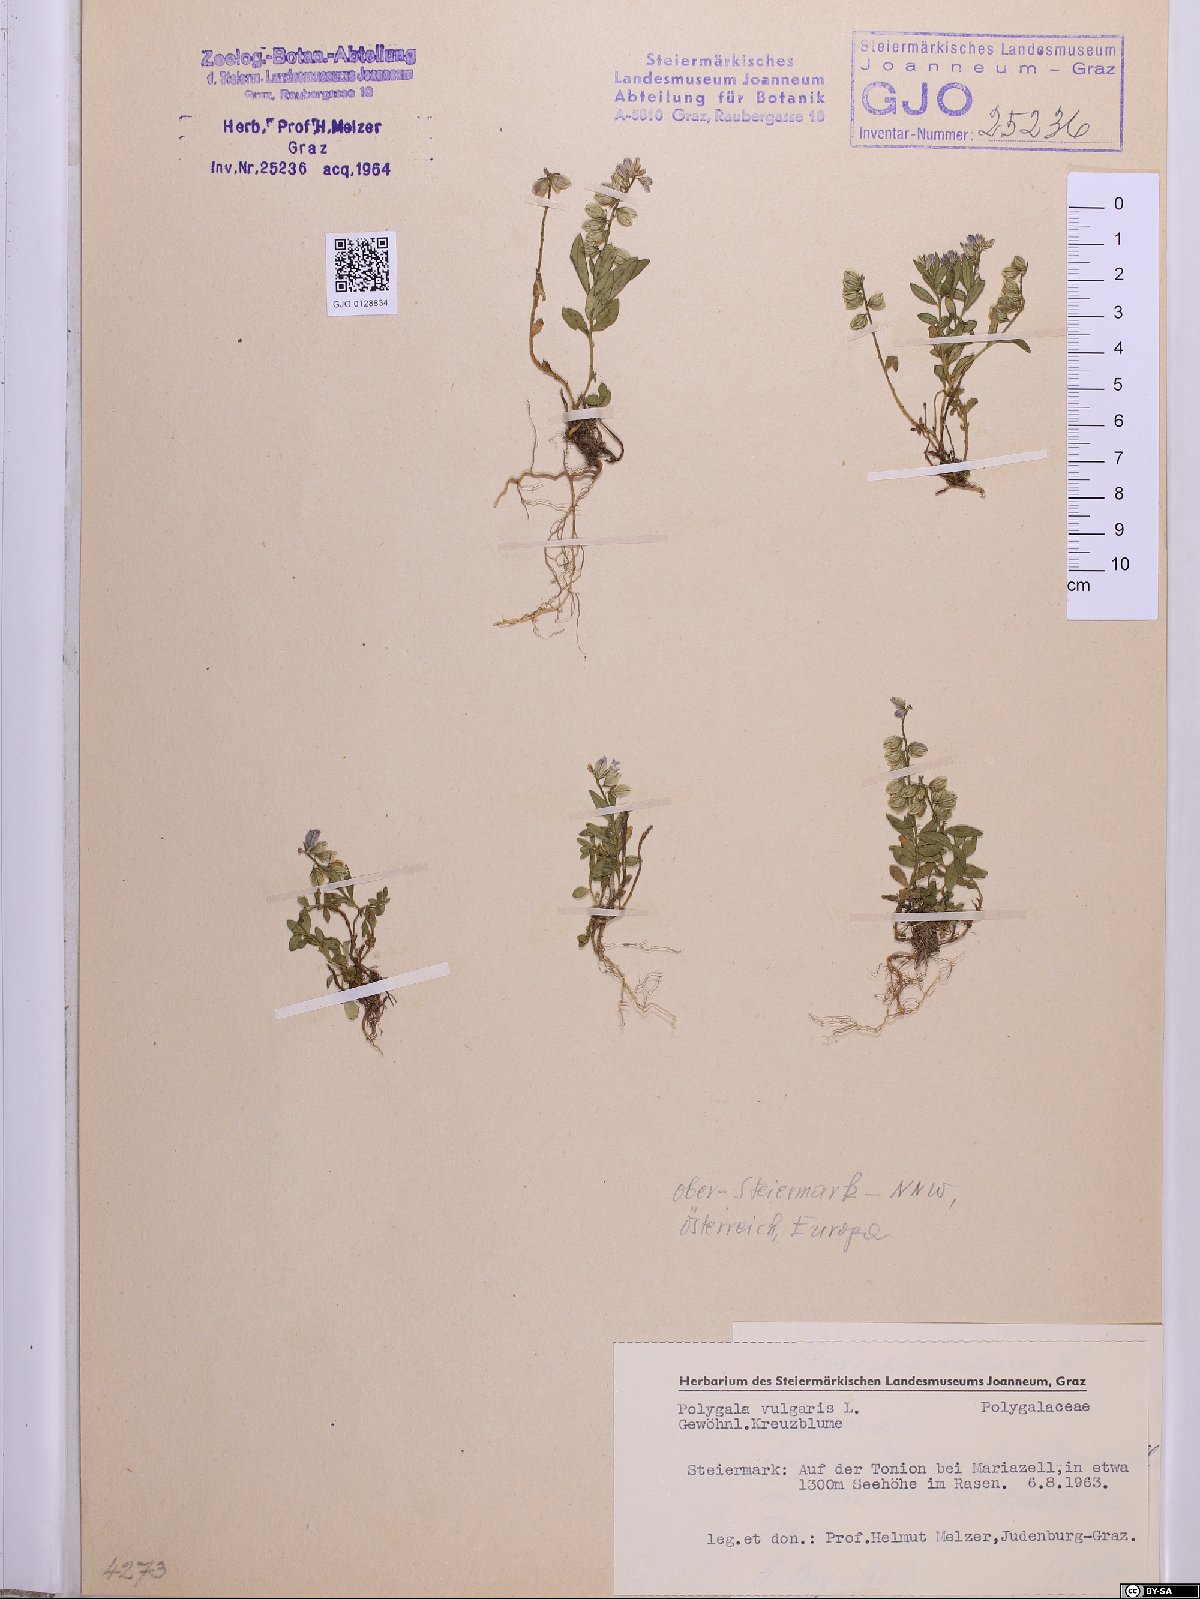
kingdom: Plantae
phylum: Tracheophyta
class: Magnoliopsida
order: Fabales
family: Polygalaceae
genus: Polygala
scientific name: Polygala vulgaris
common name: Common milkwort
